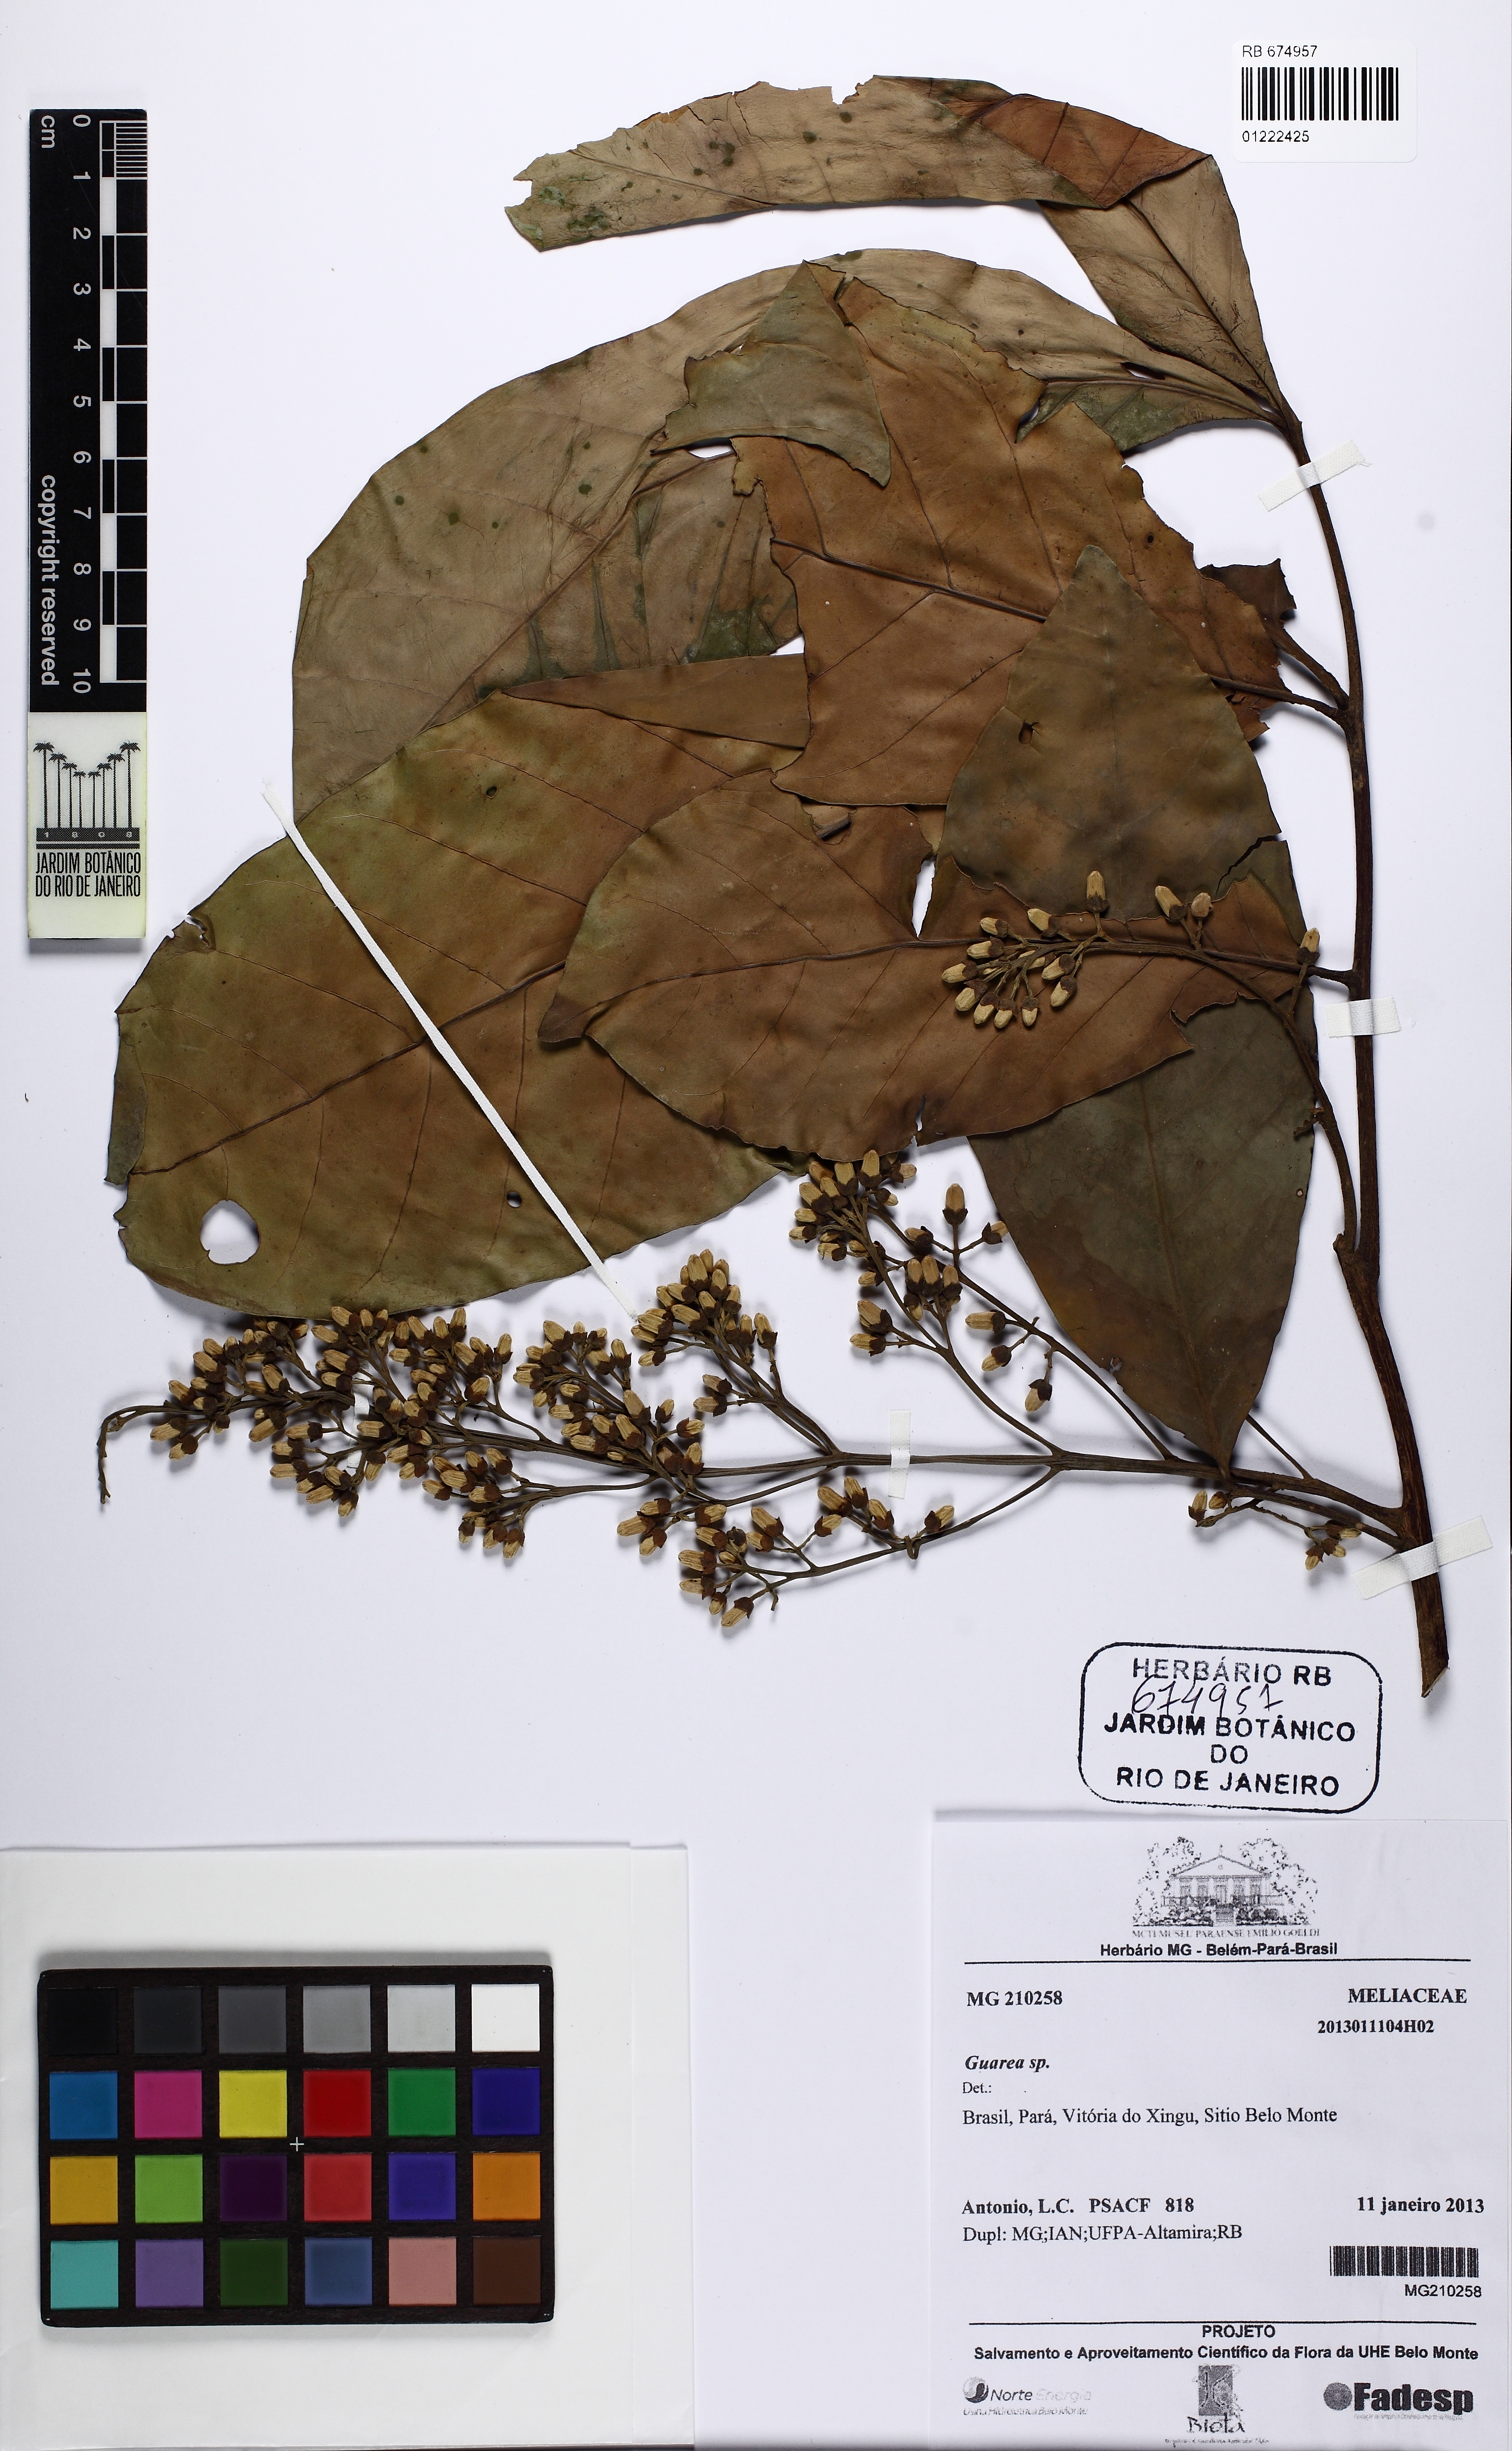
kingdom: Plantae
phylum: Tracheophyta
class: Magnoliopsida
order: Sapindales
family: Meliaceae
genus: Guarea
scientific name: Guarea
